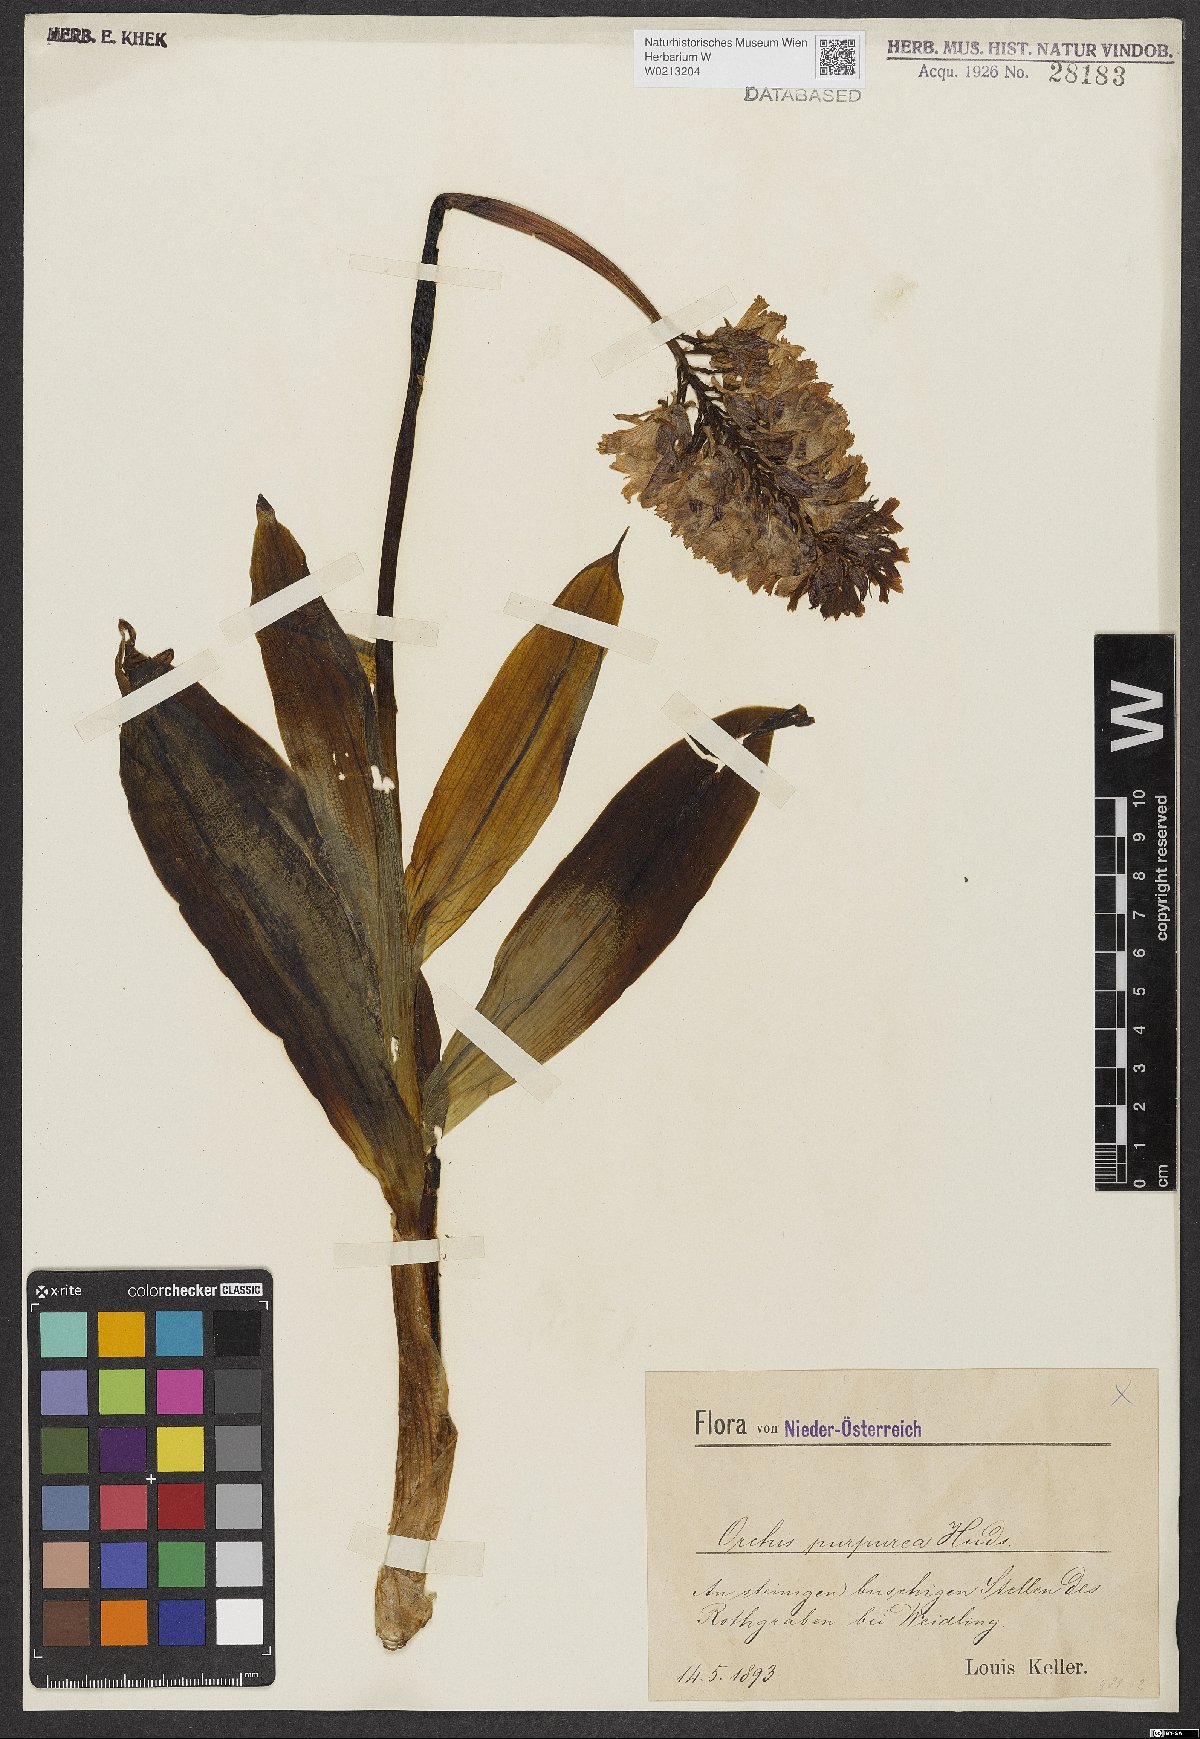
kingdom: Plantae
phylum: Tracheophyta
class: Liliopsida
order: Asparagales
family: Orchidaceae
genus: Orchis
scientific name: Orchis purpurea
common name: Lady orchid
